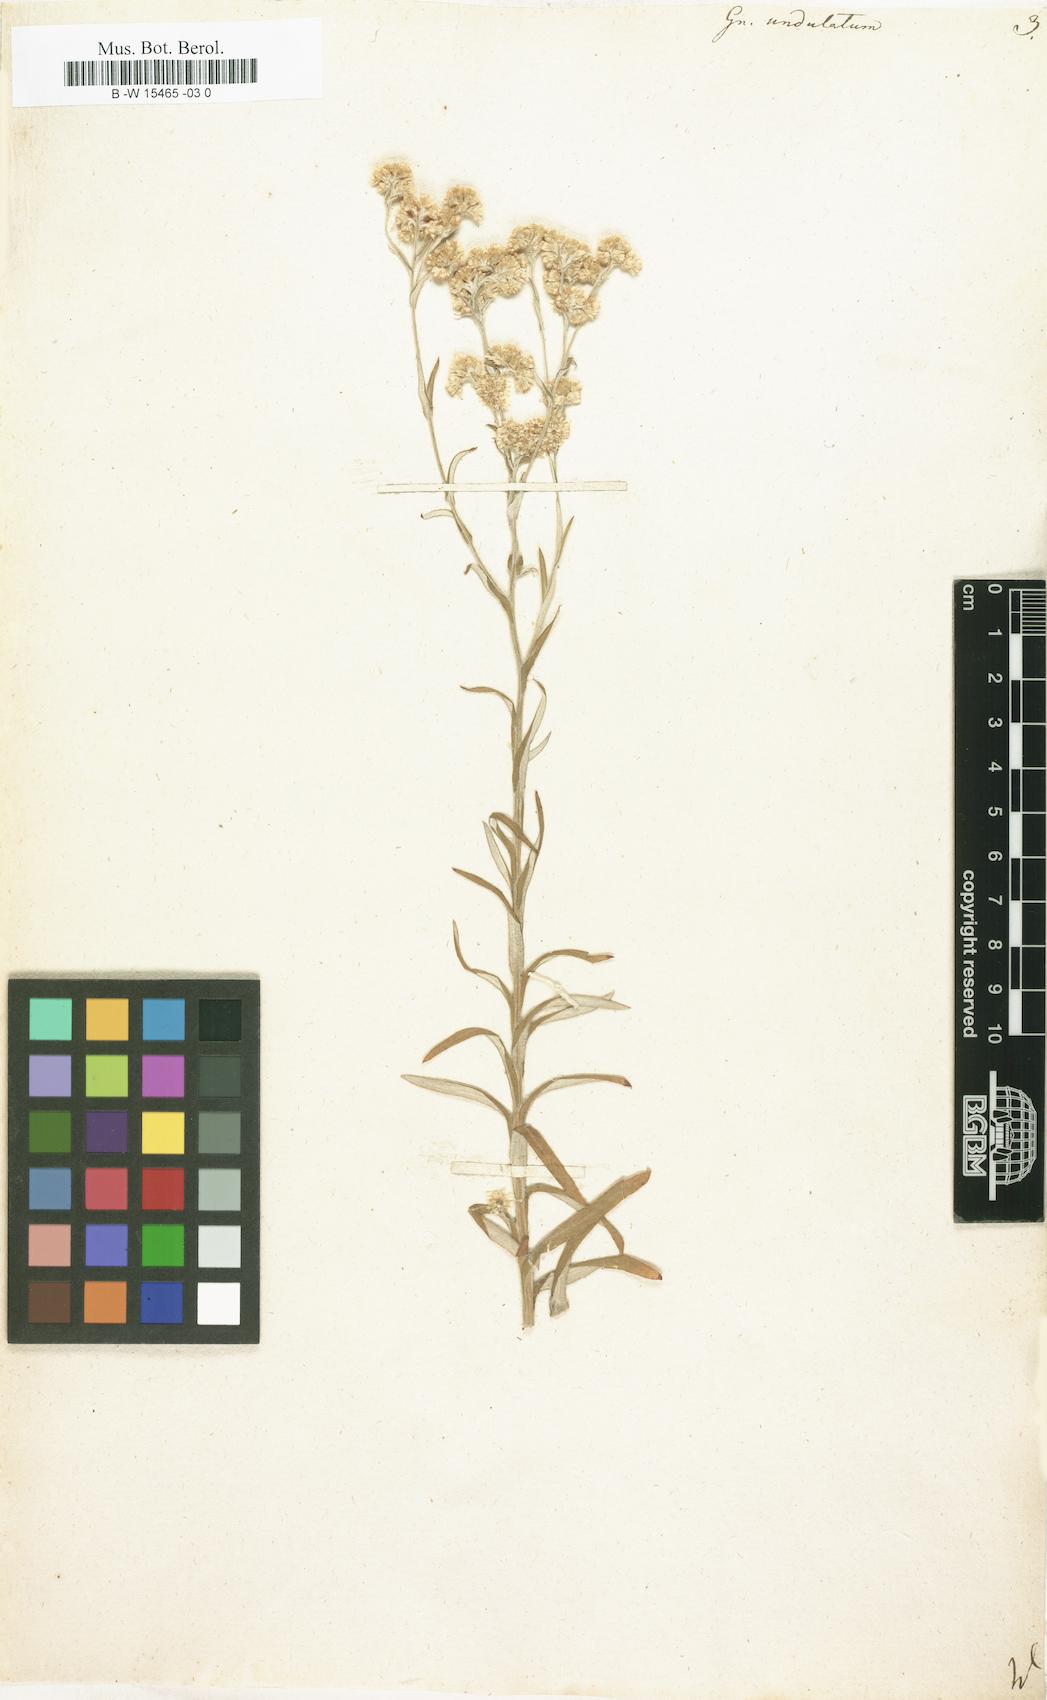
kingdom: Plantae
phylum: Tracheophyta
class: Magnoliopsida
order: Asterales
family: Asteraceae
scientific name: Asteraceae
